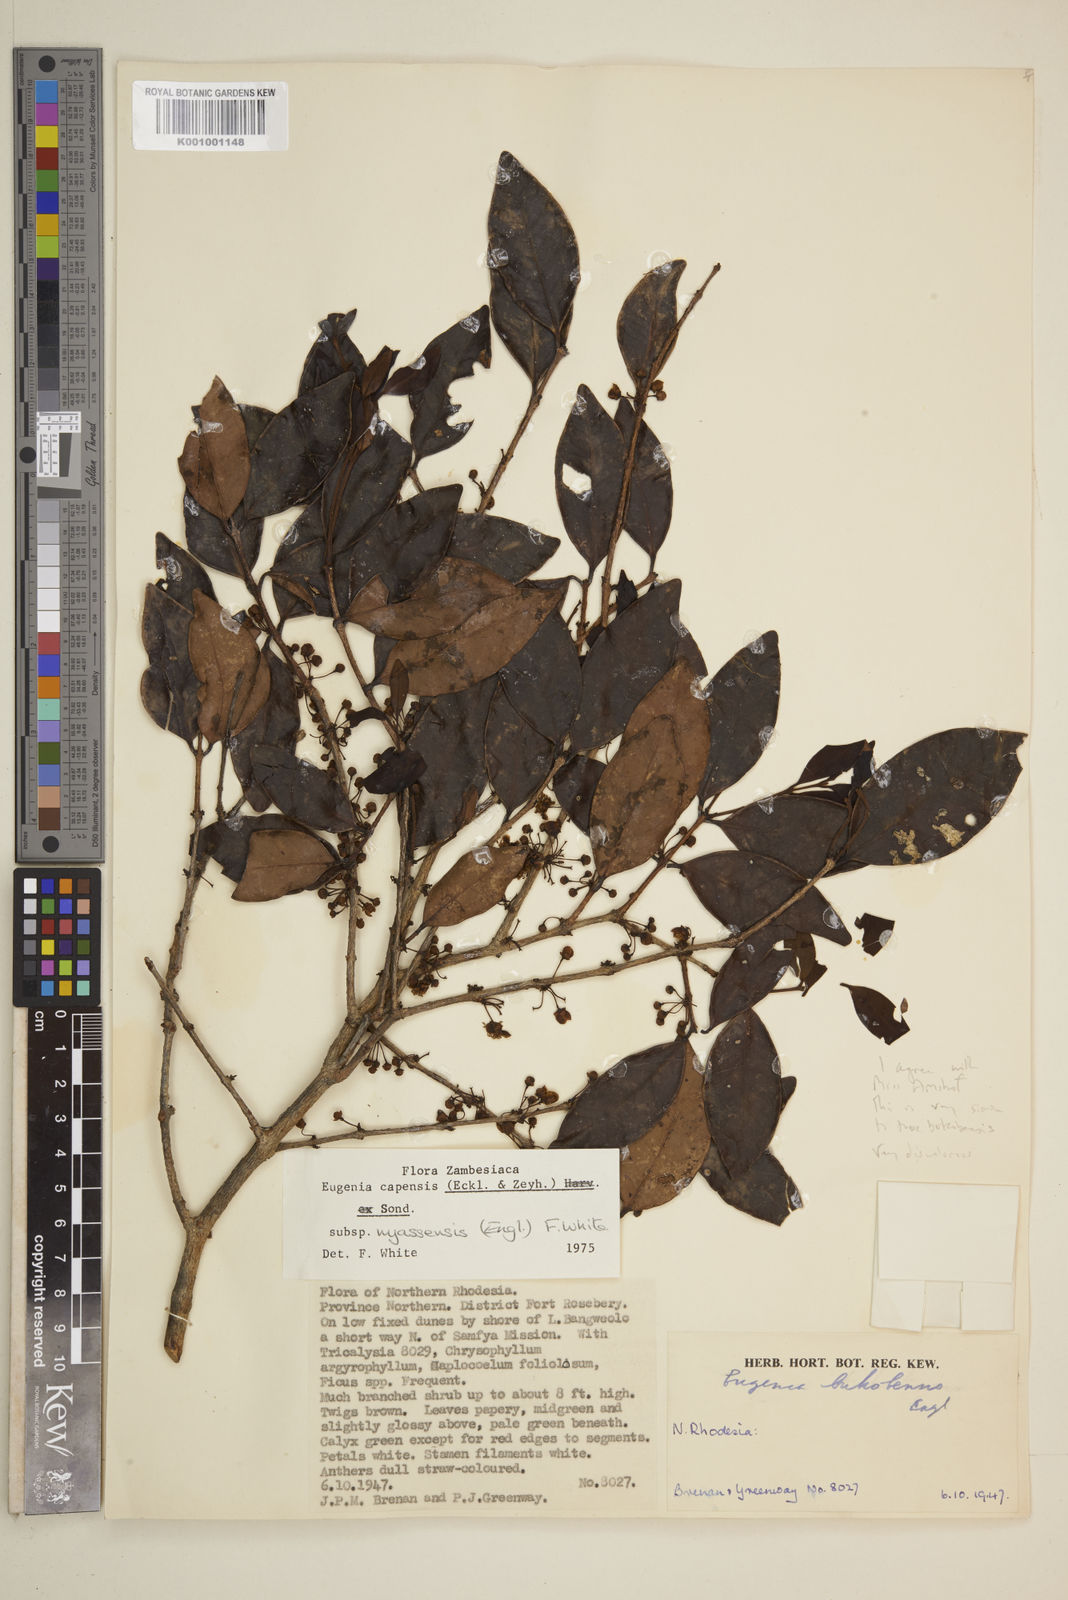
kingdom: Plantae
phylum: Tracheophyta
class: Magnoliopsida
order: Myrtales
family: Myrtaceae
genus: Eugenia
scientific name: Eugenia capensis
